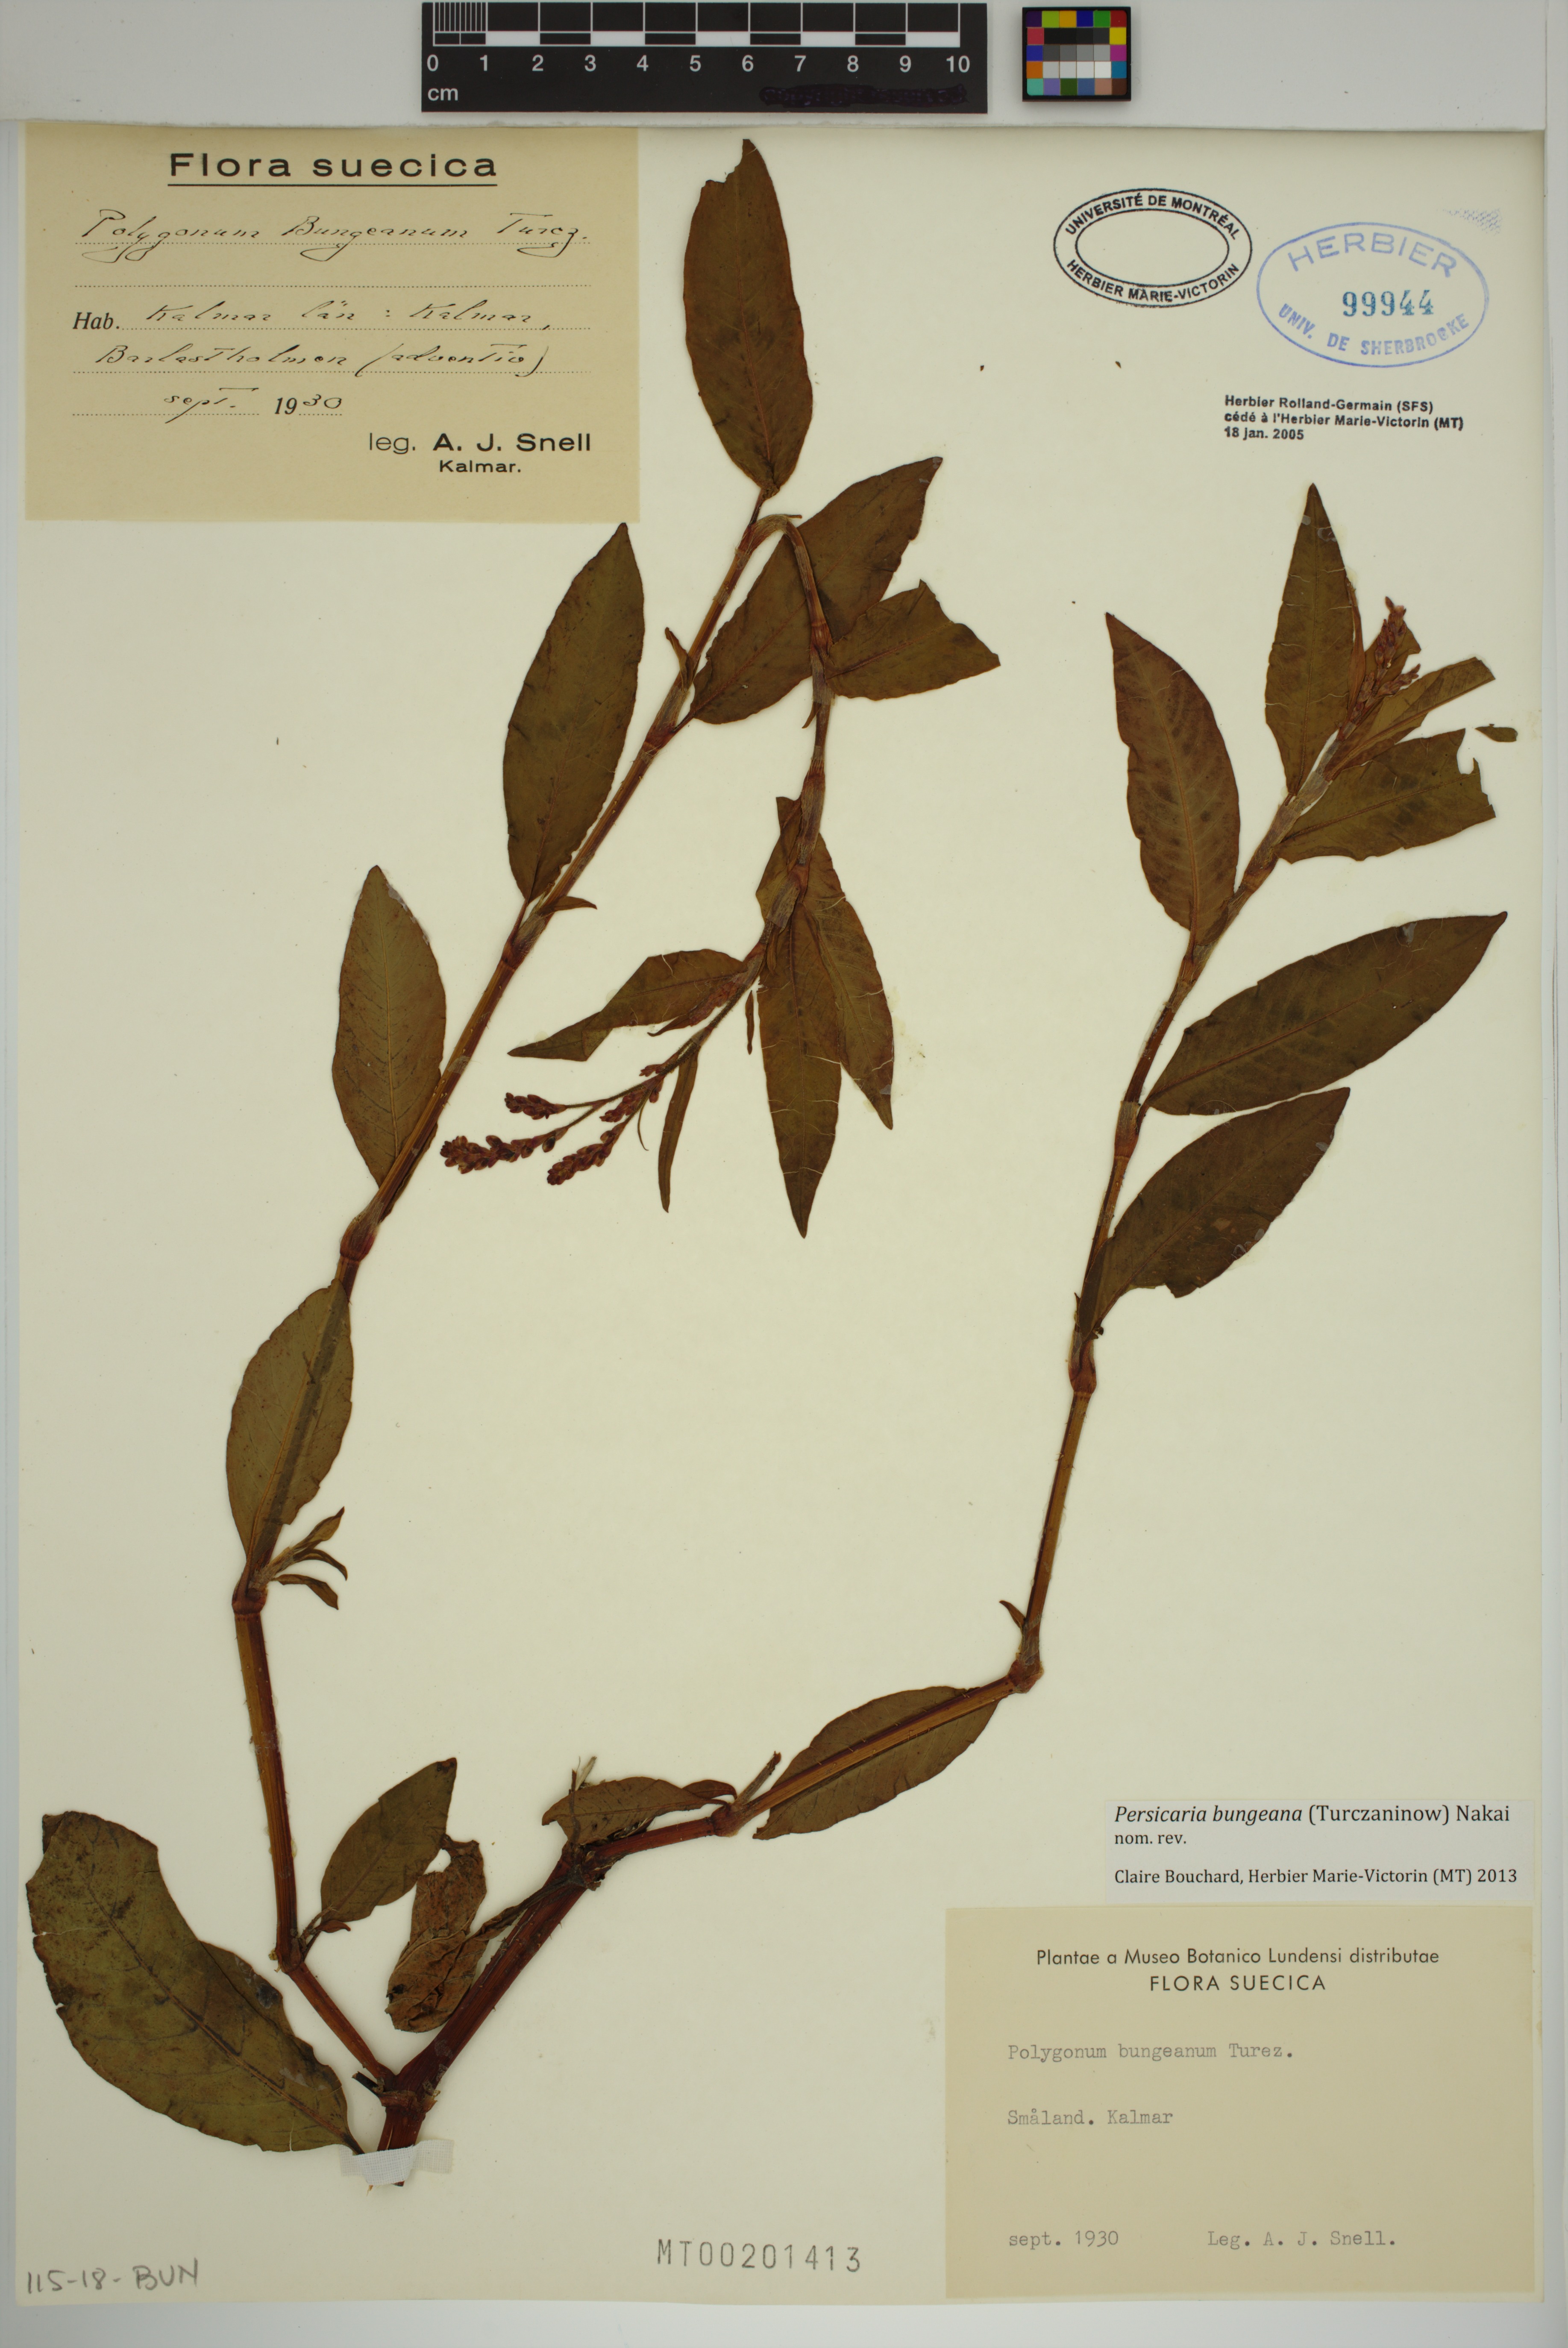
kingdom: Plantae
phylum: Tracheophyta
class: Magnoliopsida
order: Caryophyllales
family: Polygonaceae
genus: Persicaria
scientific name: Persicaria bungeana
